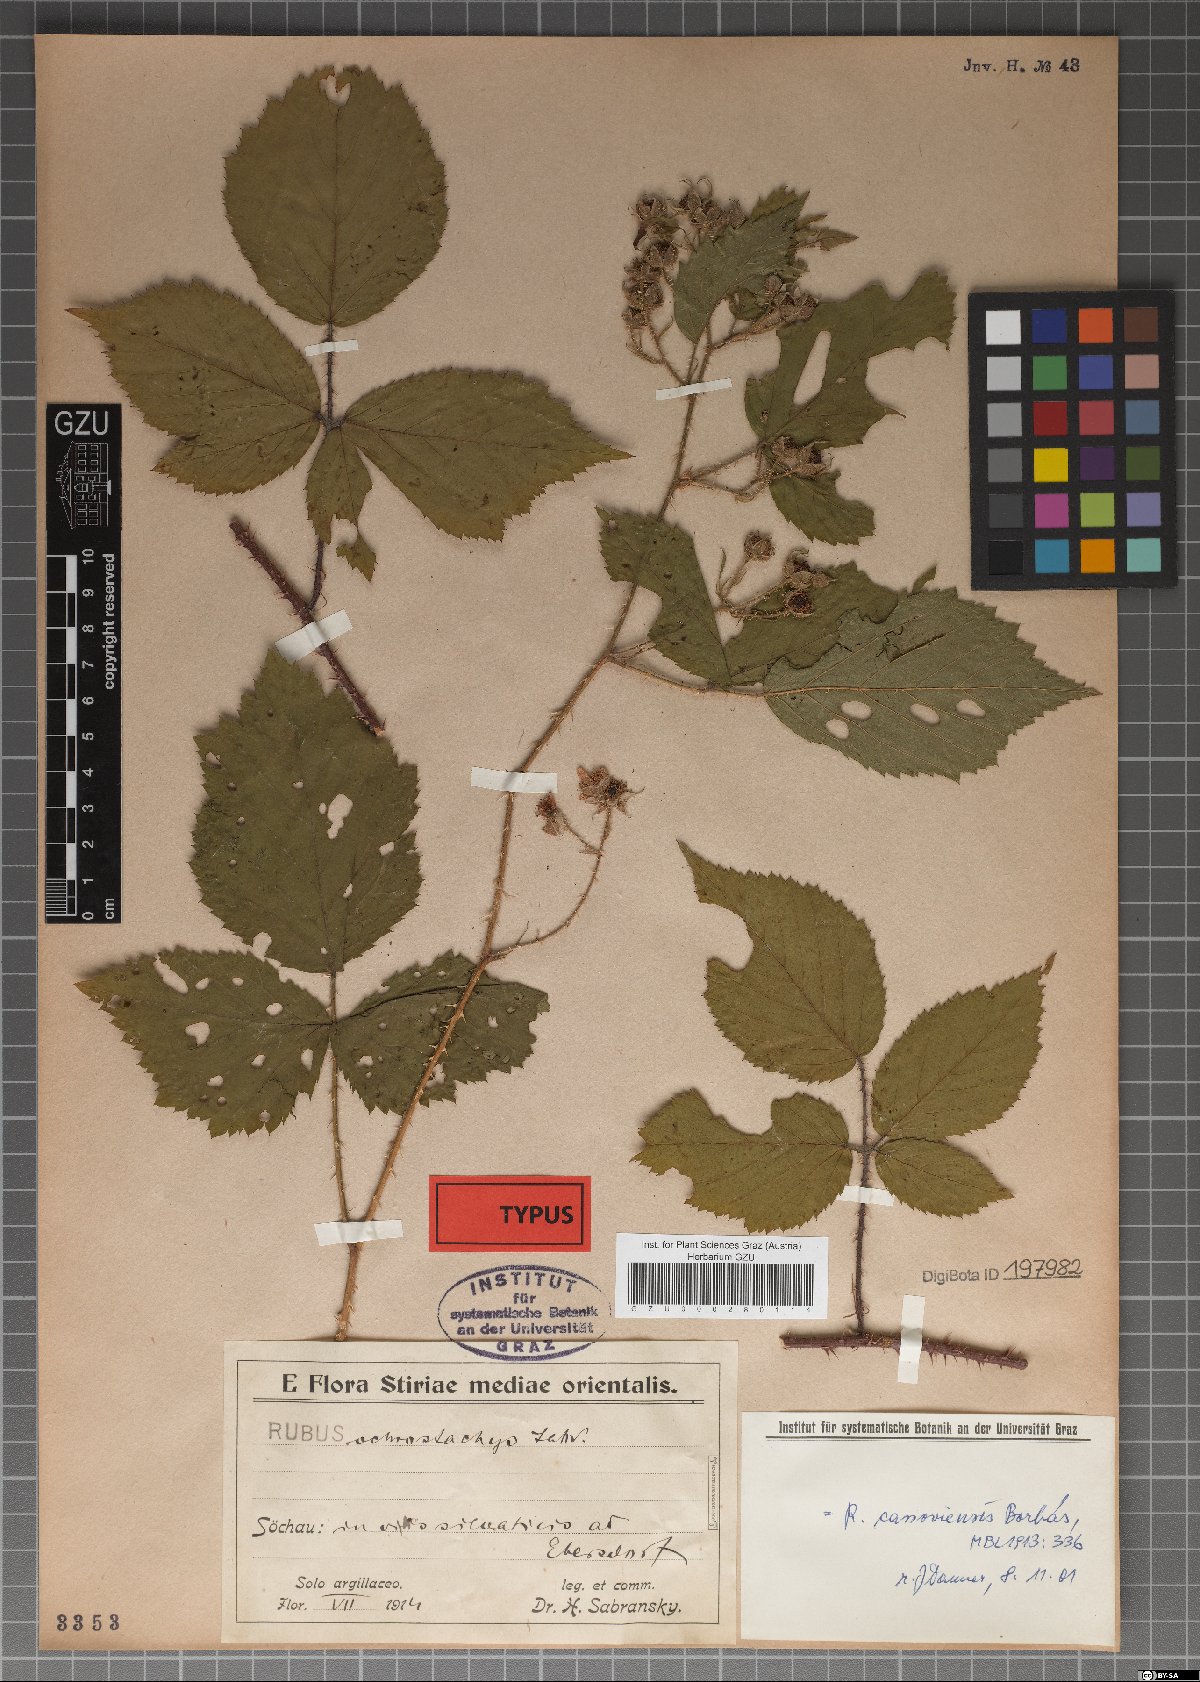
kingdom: Plantae
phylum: Tracheophyta
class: Magnoliopsida
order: Rosales
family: Rosaceae
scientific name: Rosaceae
